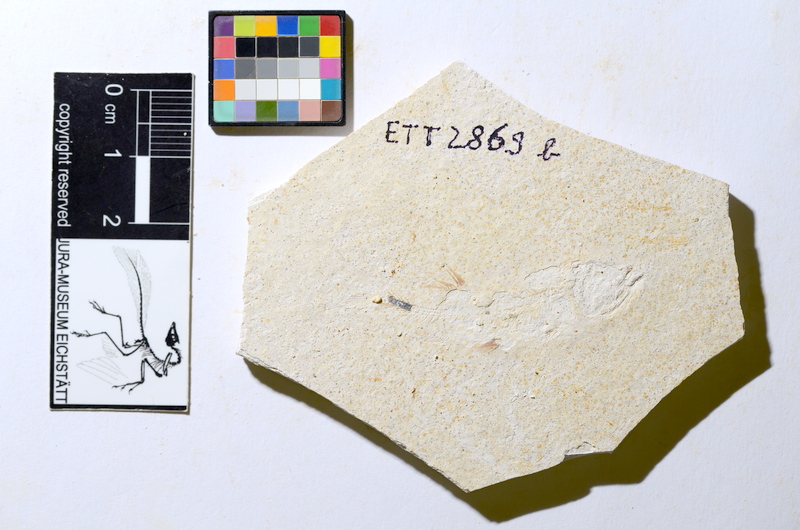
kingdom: Animalia
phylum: Chordata
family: Ascalaboidae
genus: Ebertichthys
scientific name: Ebertichthys ettlingensis
